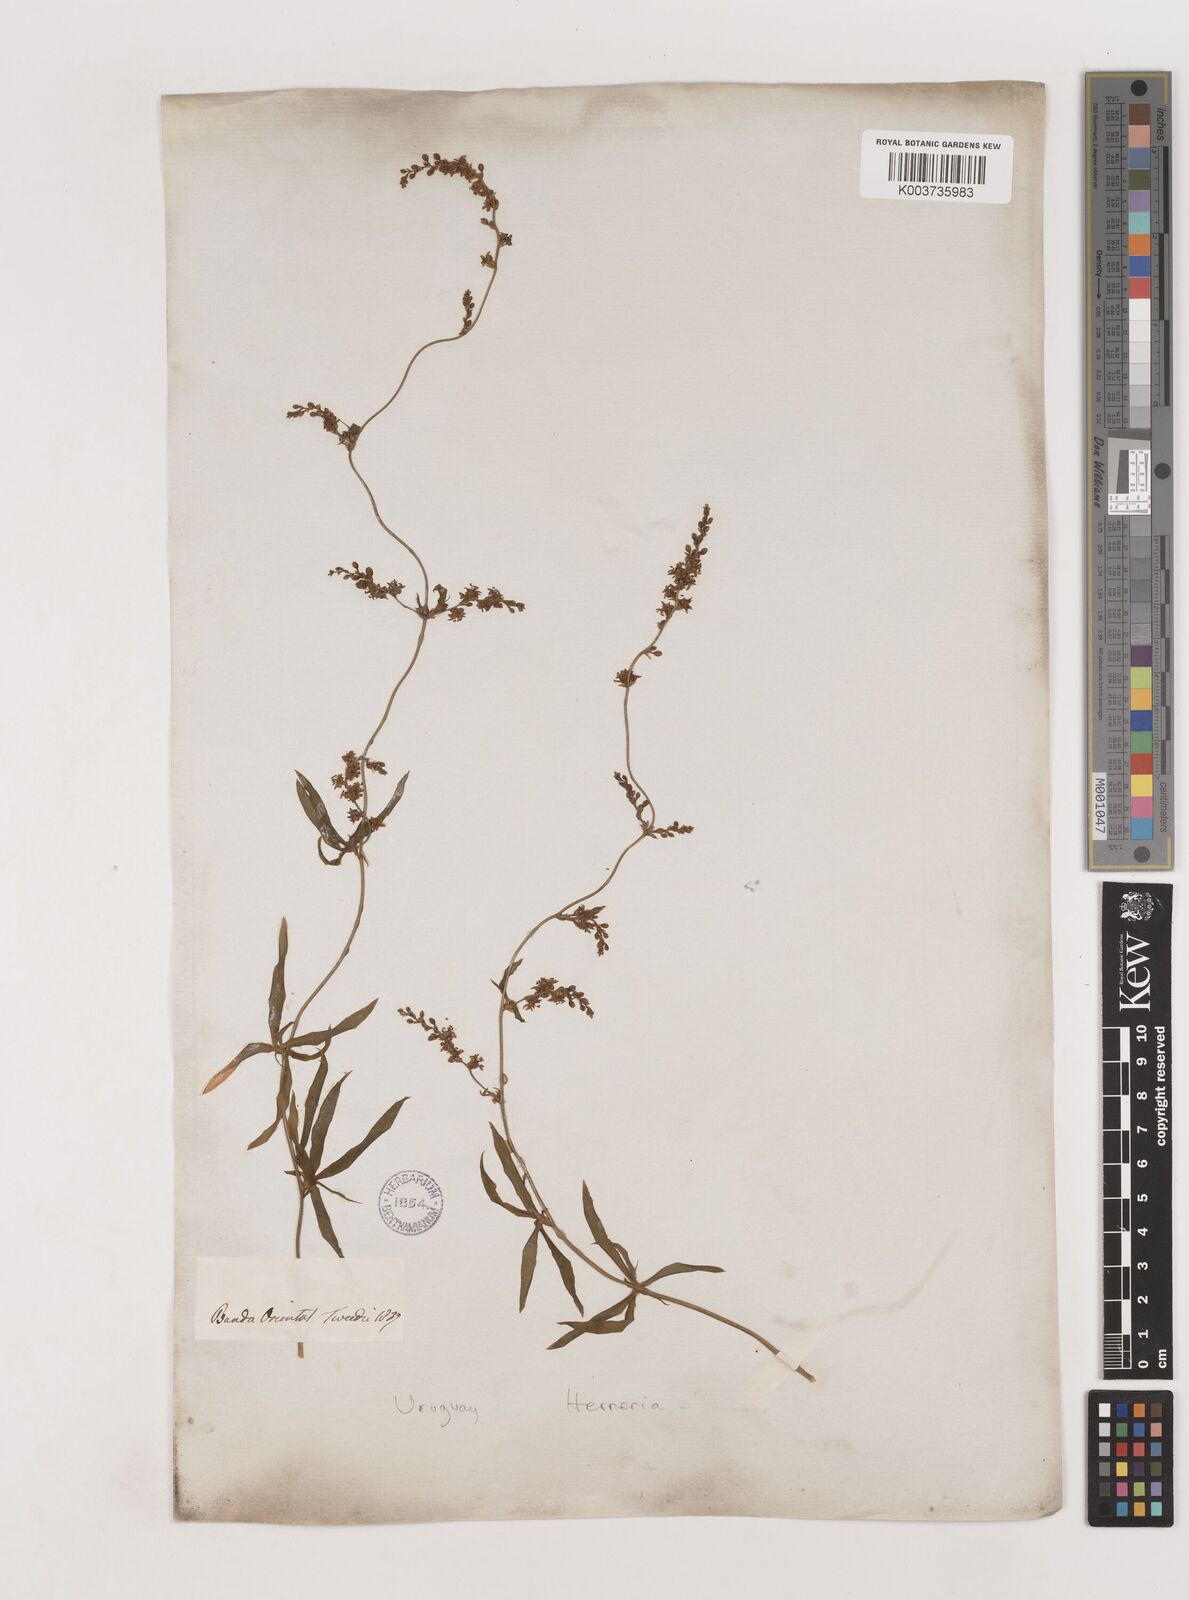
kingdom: Plantae
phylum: Tracheophyta
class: Liliopsida
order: Asparagales
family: Asparagaceae
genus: Herreria
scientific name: Herreria montevidensis
